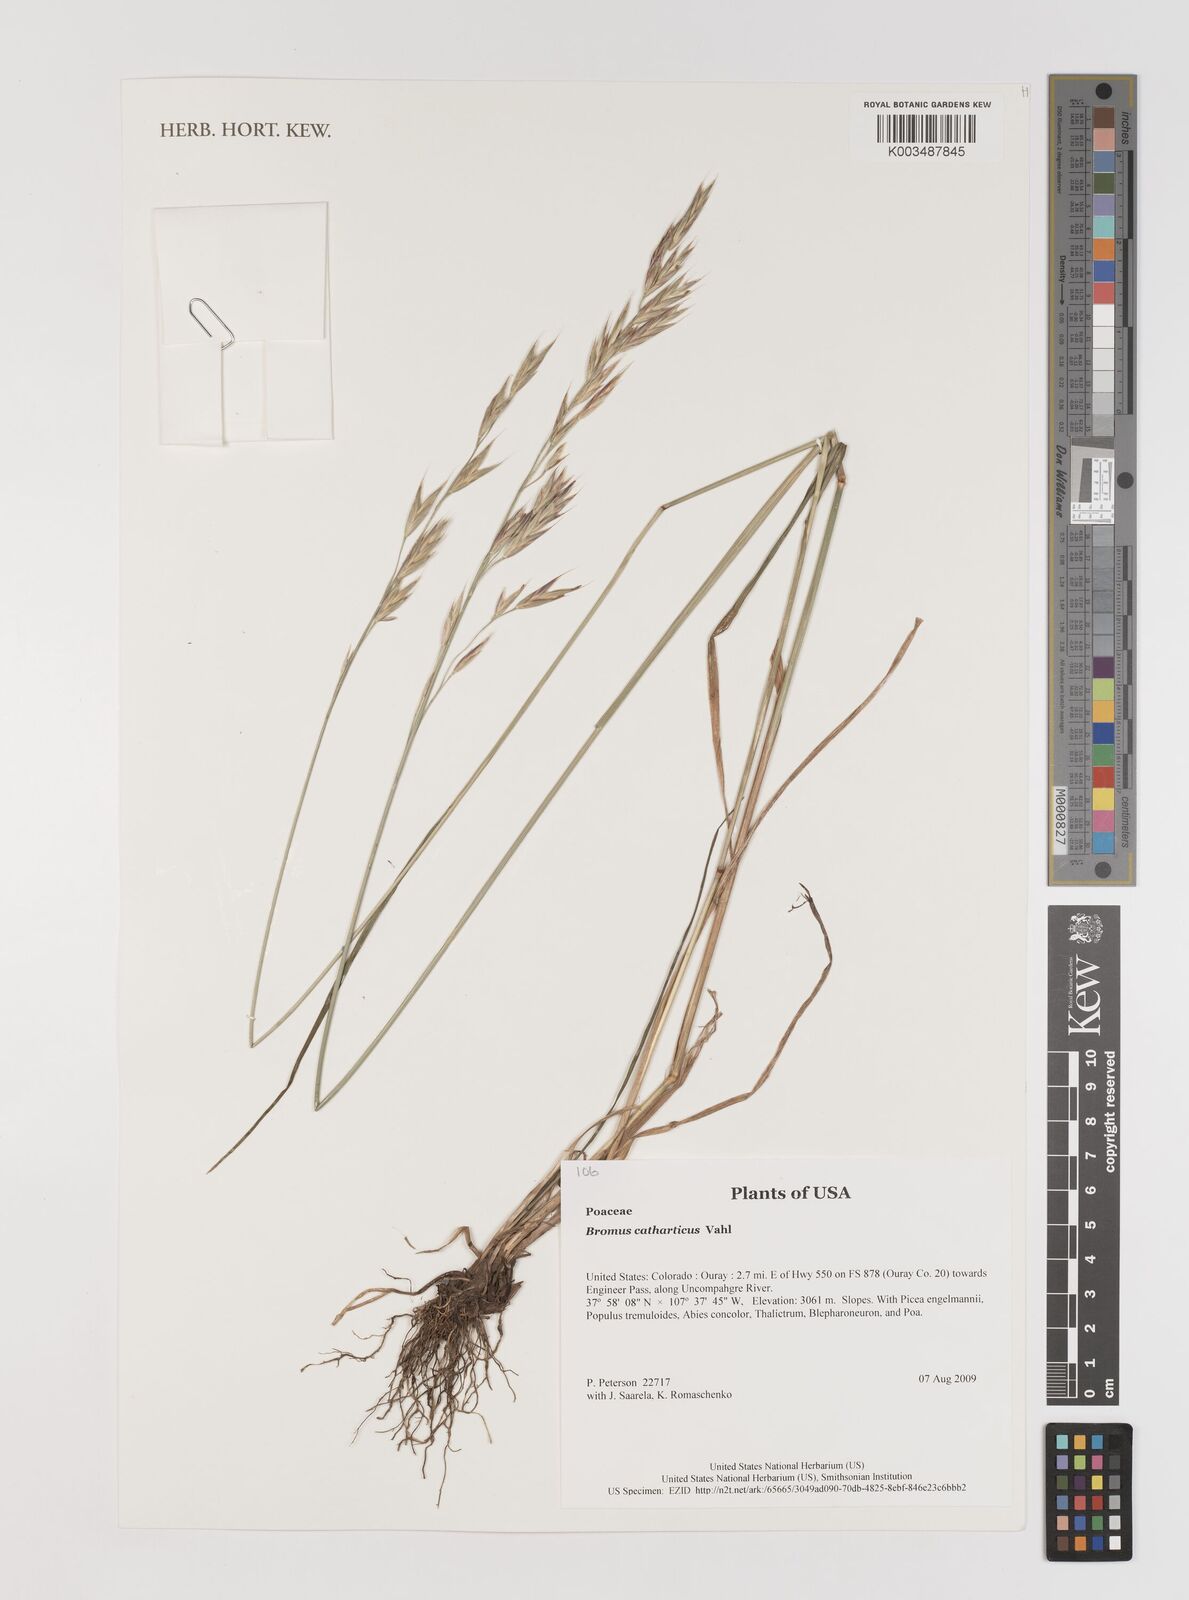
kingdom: Plantae
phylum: Tracheophyta
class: Liliopsida
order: Poales
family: Poaceae
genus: Bromus
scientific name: Bromus catharticus
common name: Rescuegrass
